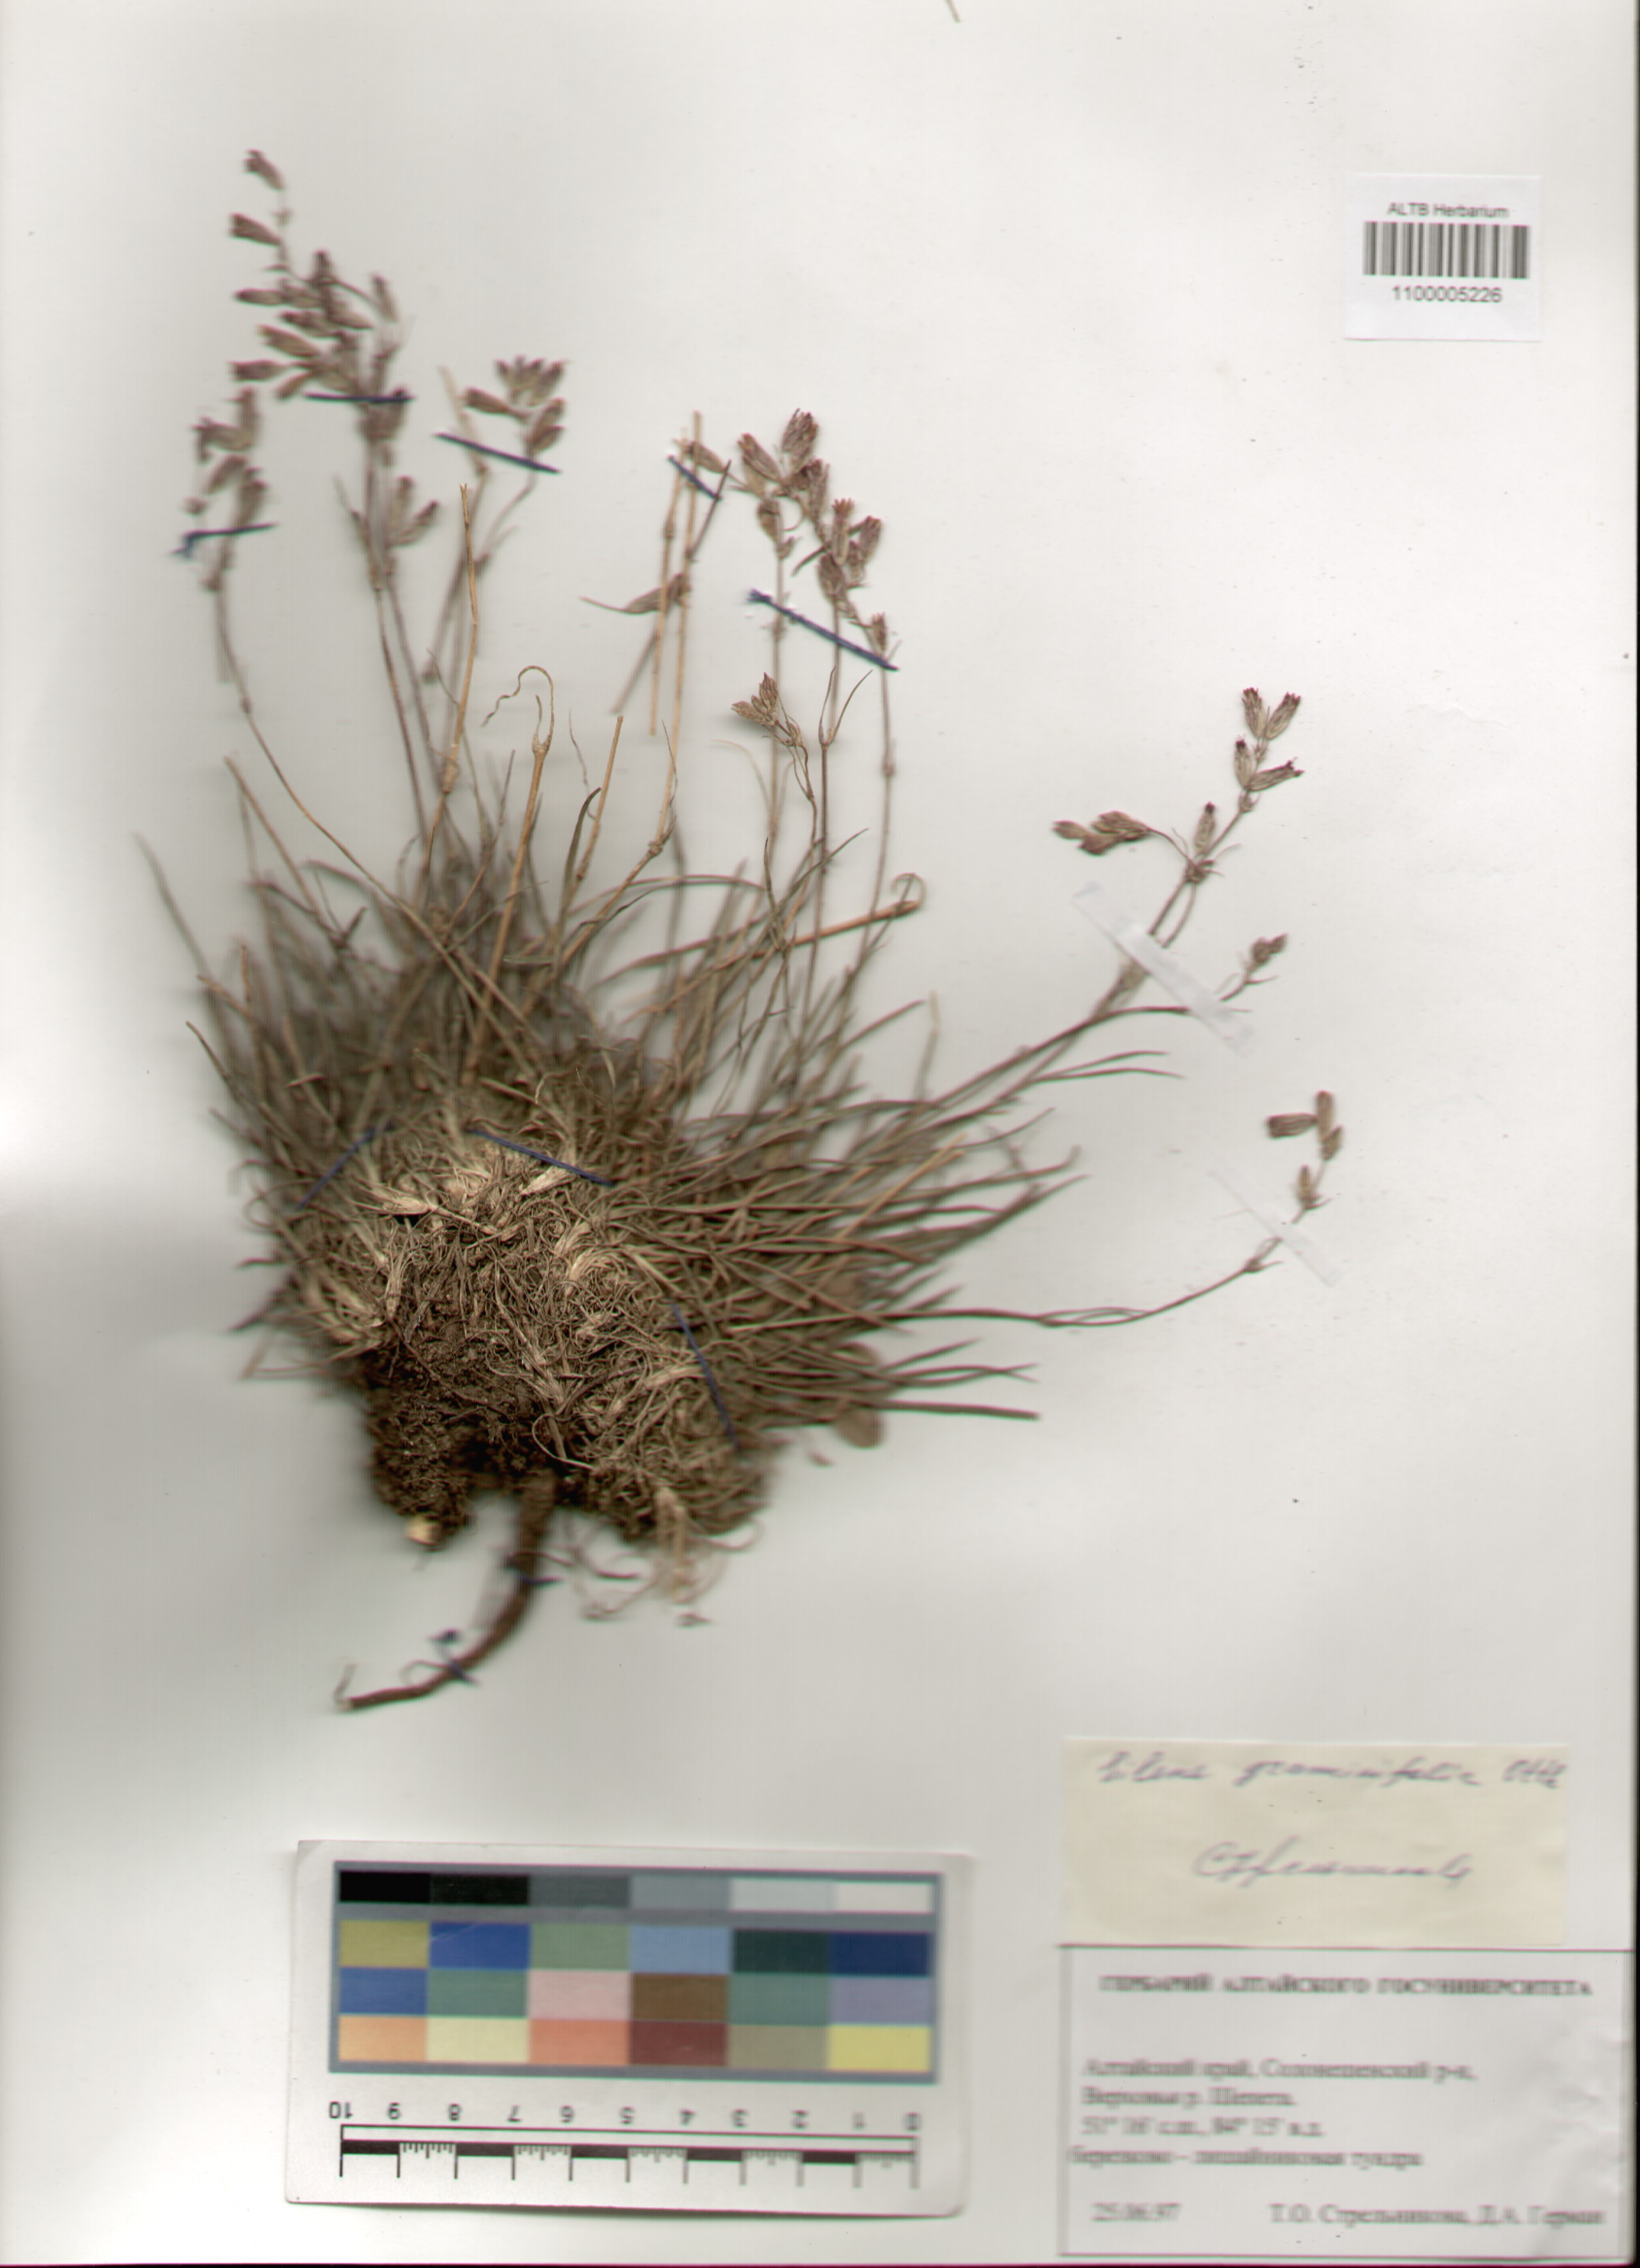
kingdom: Plantae
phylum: Tracheophyta
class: Magnoliopsida
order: Caryophyllales
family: Caryophyllaceae
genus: Silene
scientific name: Silene graminifolia
